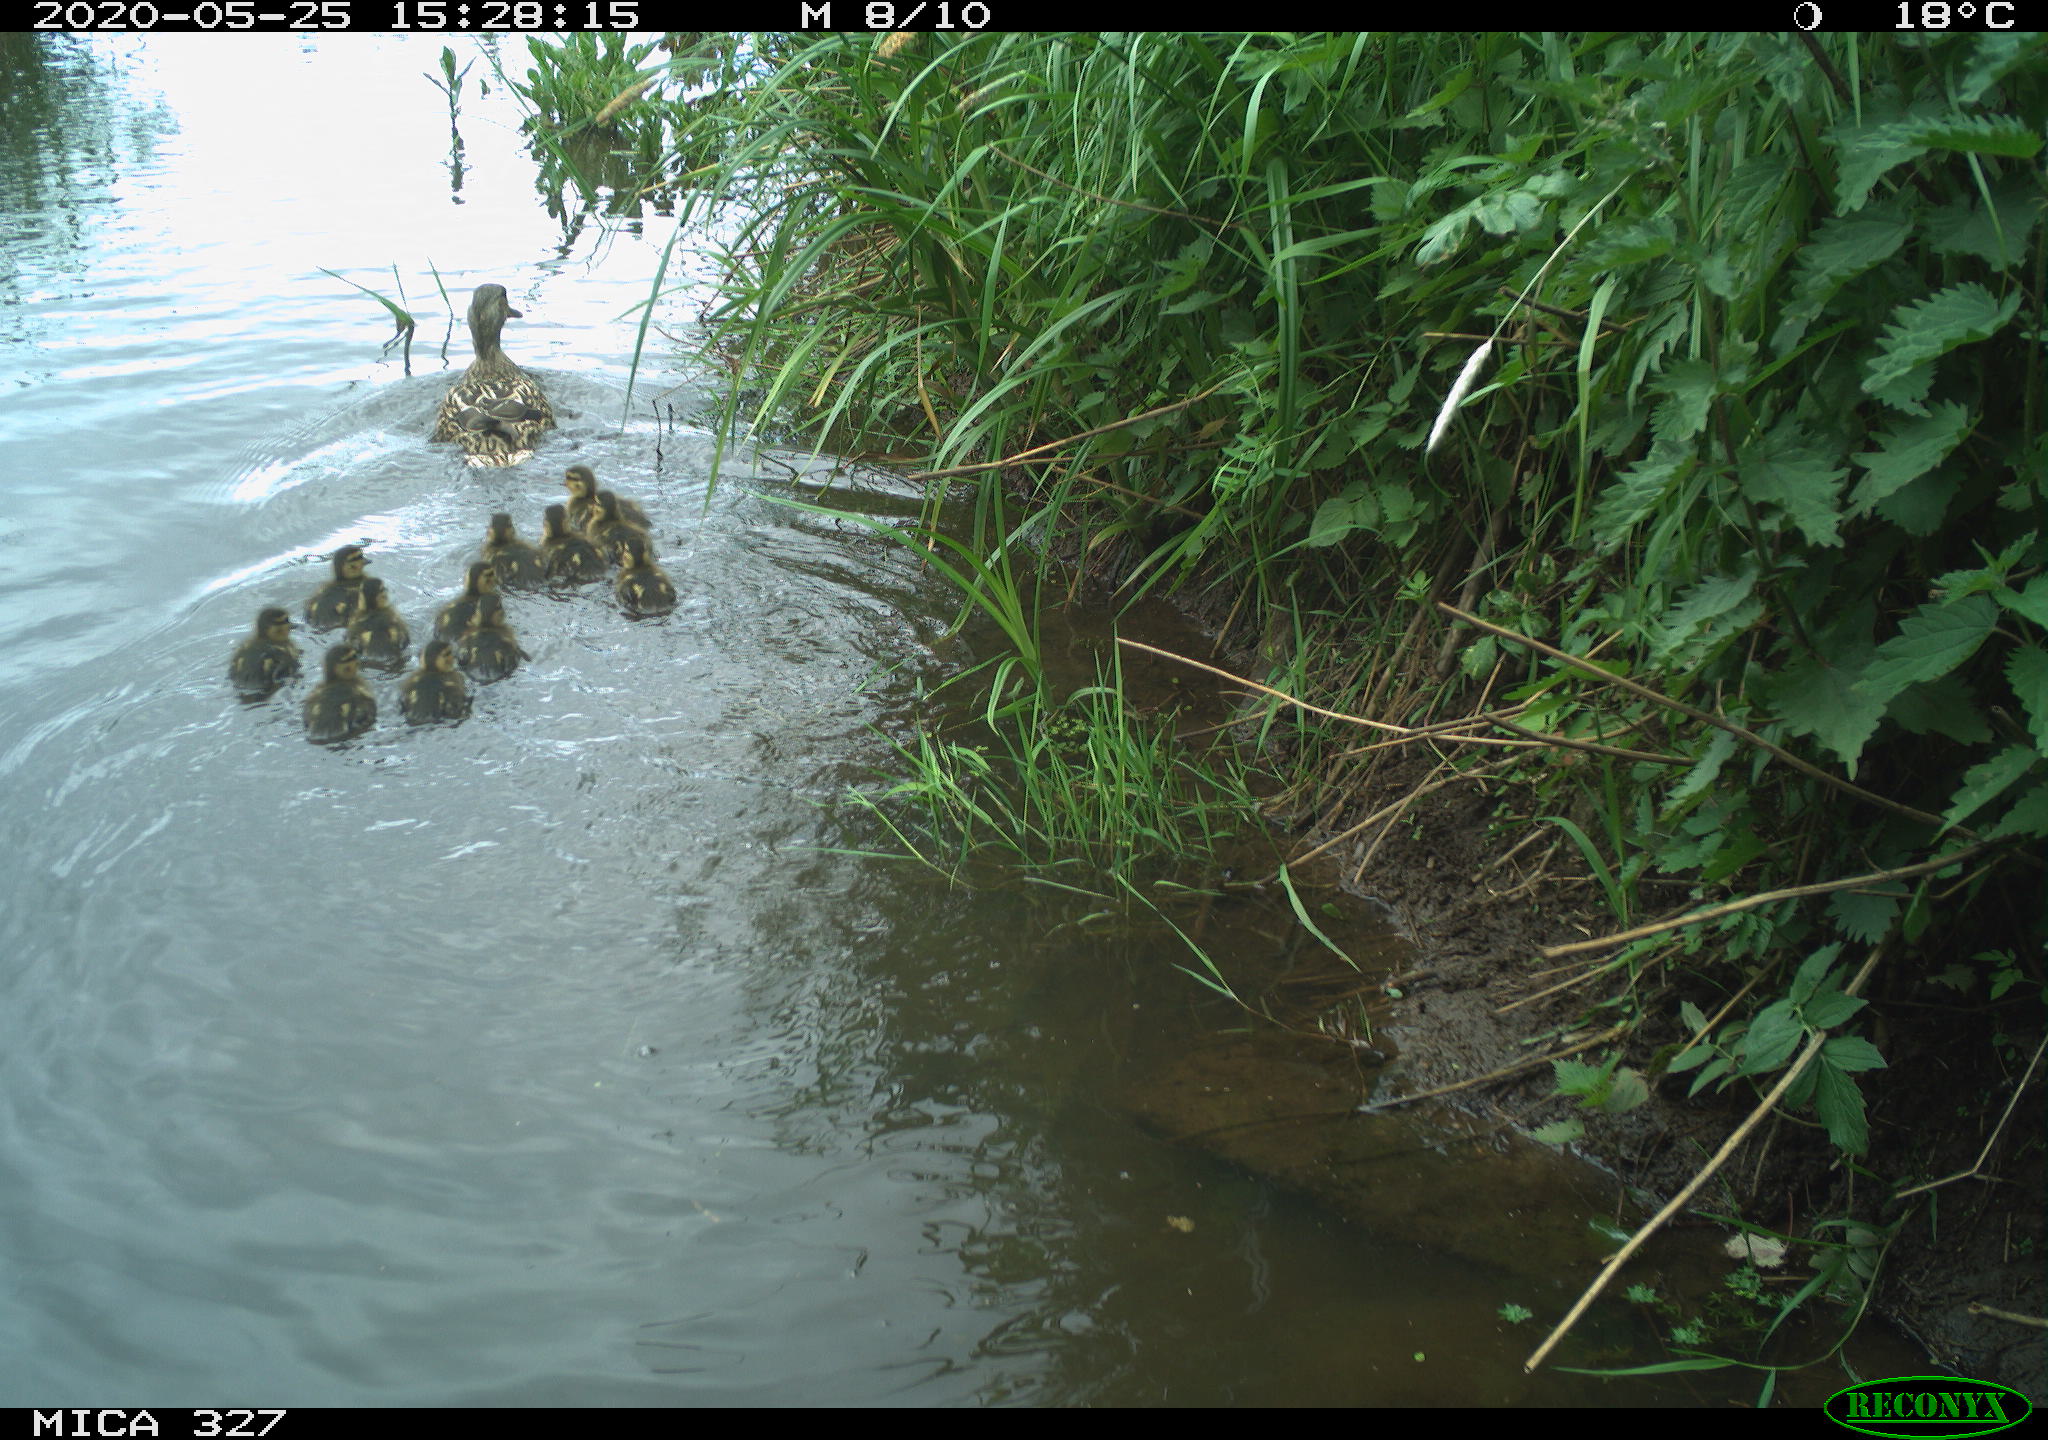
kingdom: Animalia
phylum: Chordata
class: Aves
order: Anseriformes
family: Anatidae
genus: Anas
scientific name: Anas platyrhynchos
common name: Mallard
